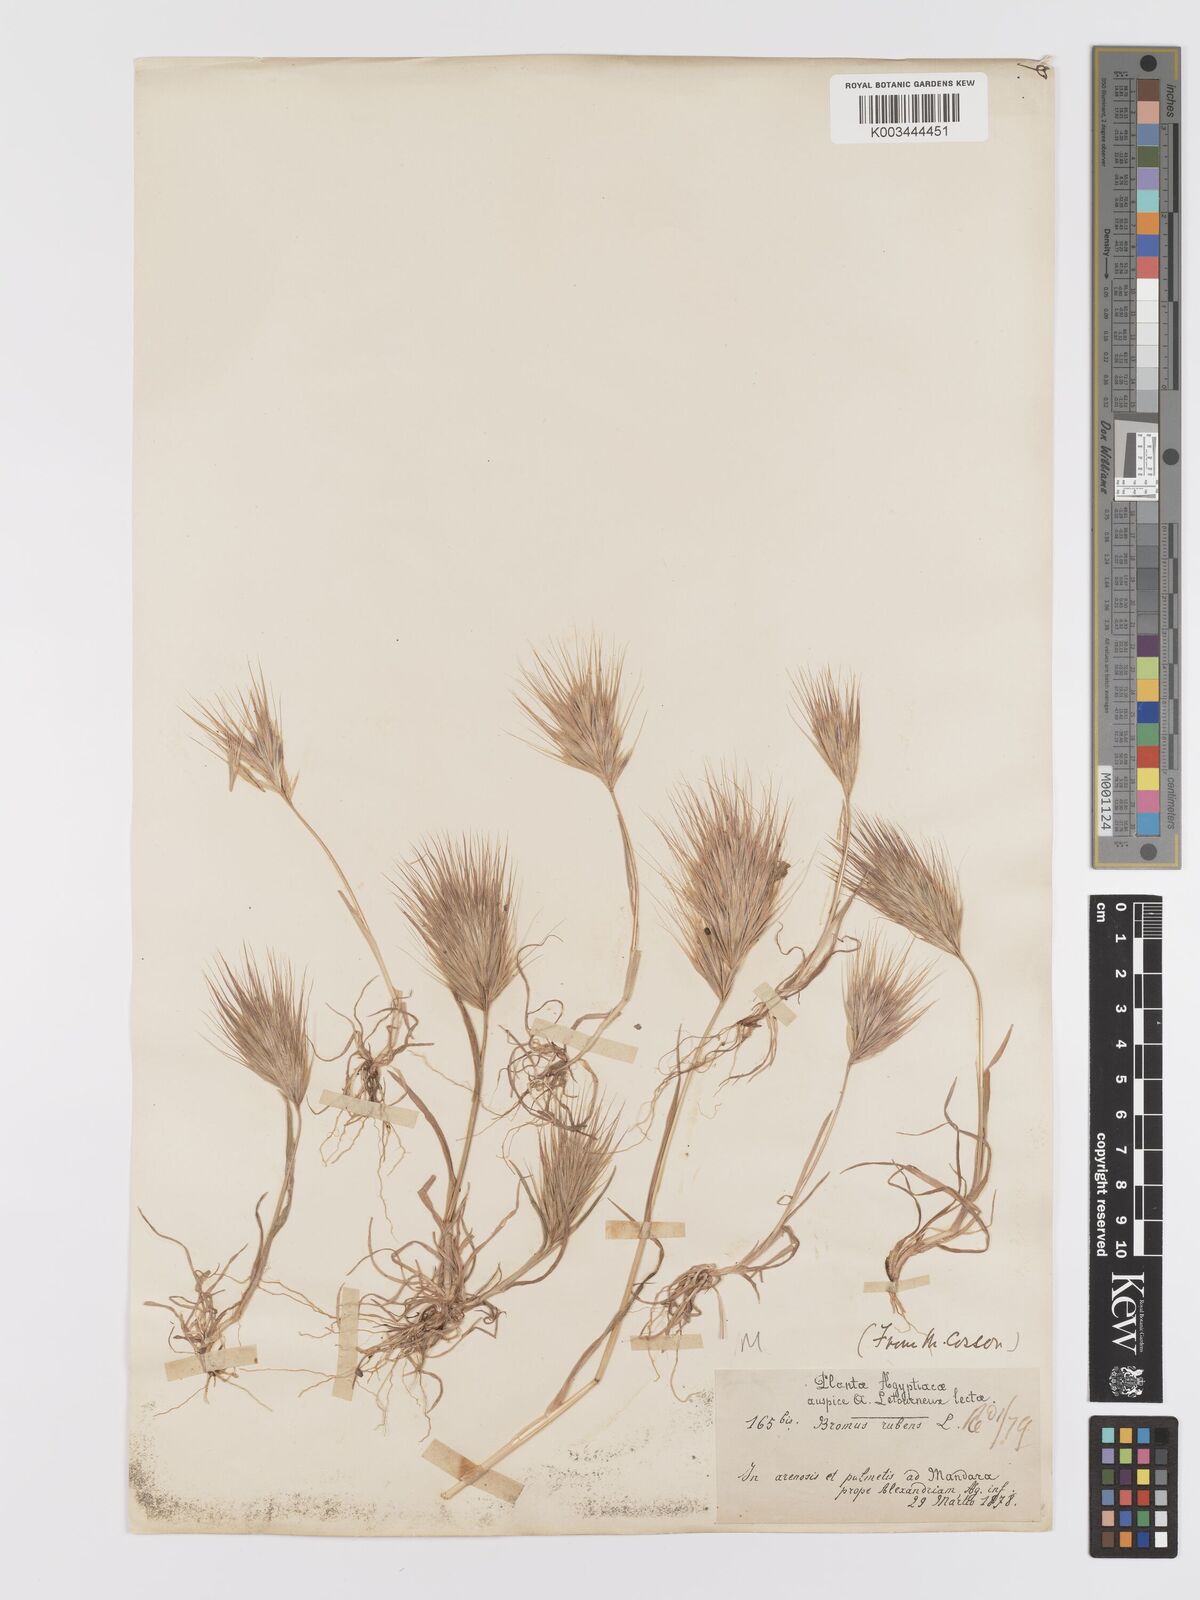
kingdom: Plantae
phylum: Tracheophyta
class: Liliopsida
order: Poales
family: Poaceae
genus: Bromus
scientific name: Bromus rubens
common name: Red brome
